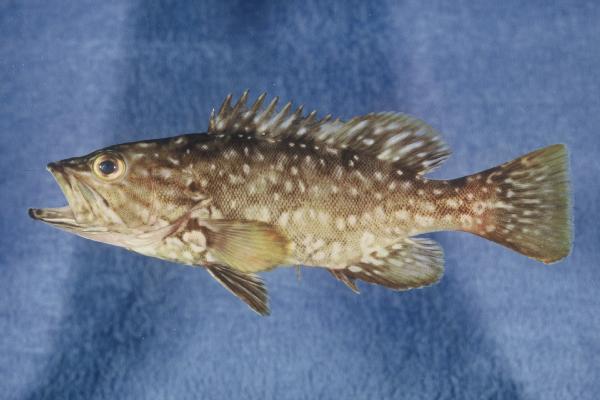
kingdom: Animalia
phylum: Chordata
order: Perciformes
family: Serranidae
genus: Mycteroperca
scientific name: Mycteroperca fusca
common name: Island grouper
